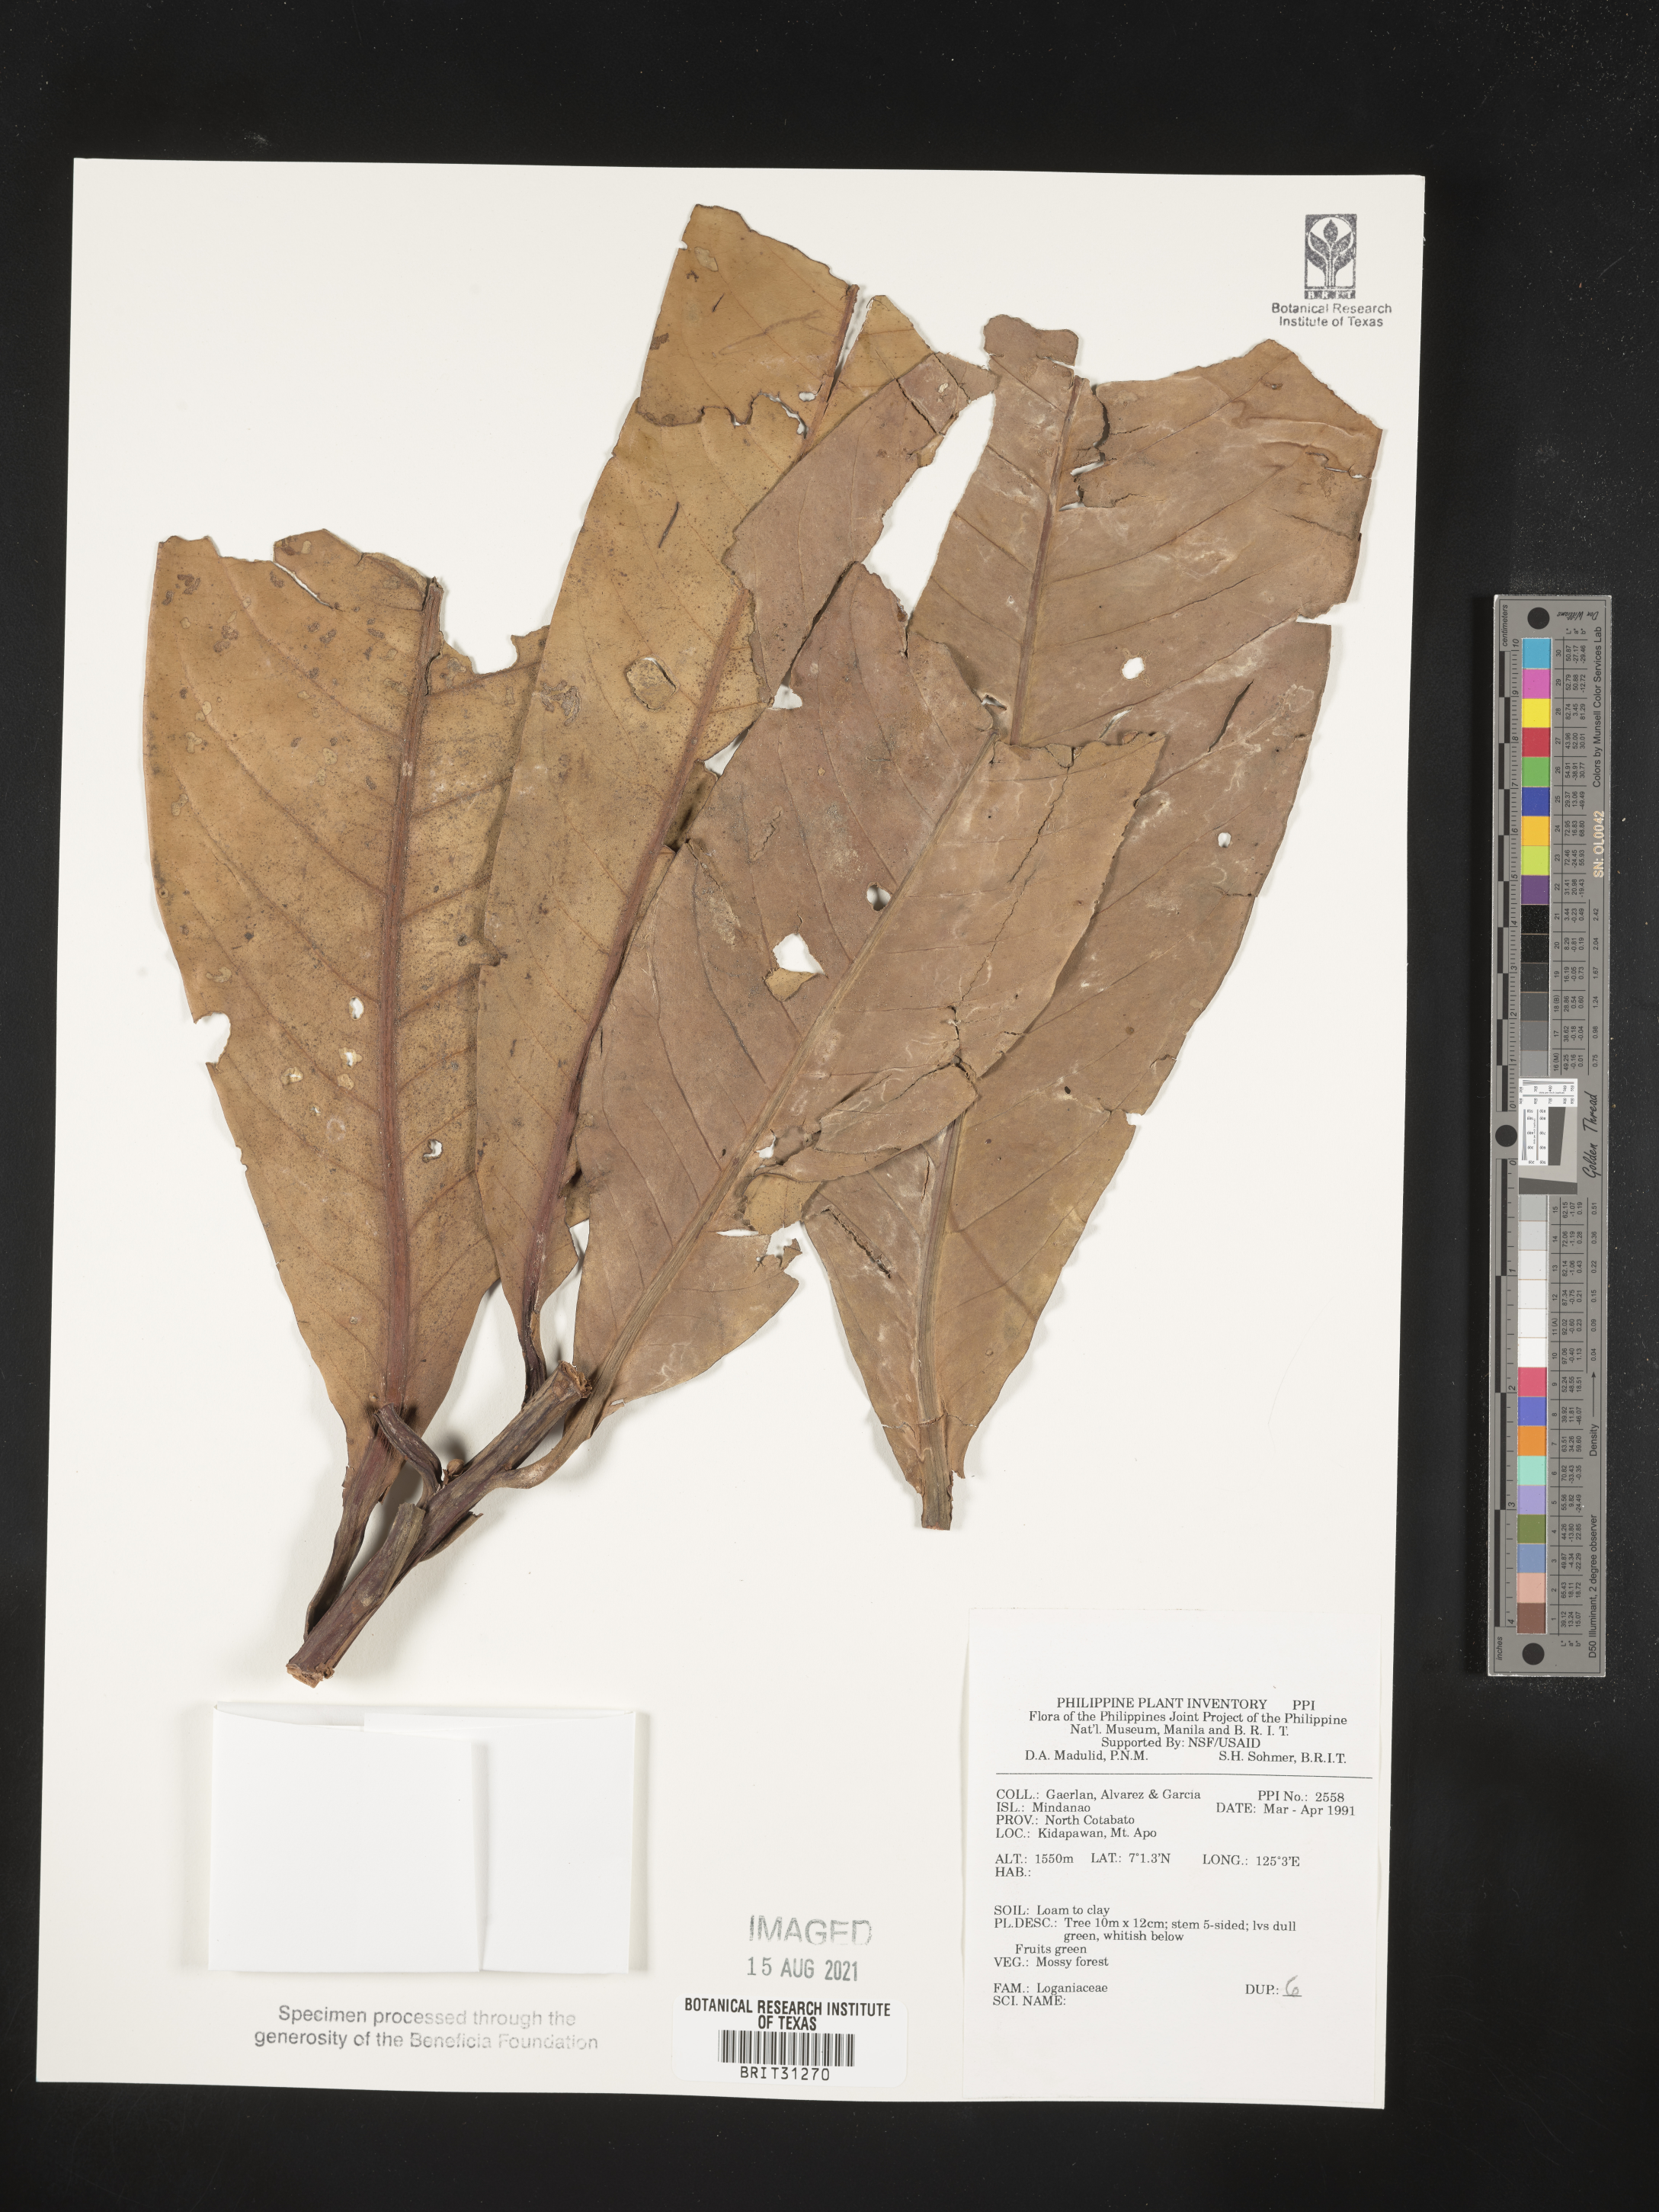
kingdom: Plantae
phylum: Tracheophyta
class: Magnoliopsida
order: Gentianales
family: Loganiaceae
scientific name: Loganiaceae
